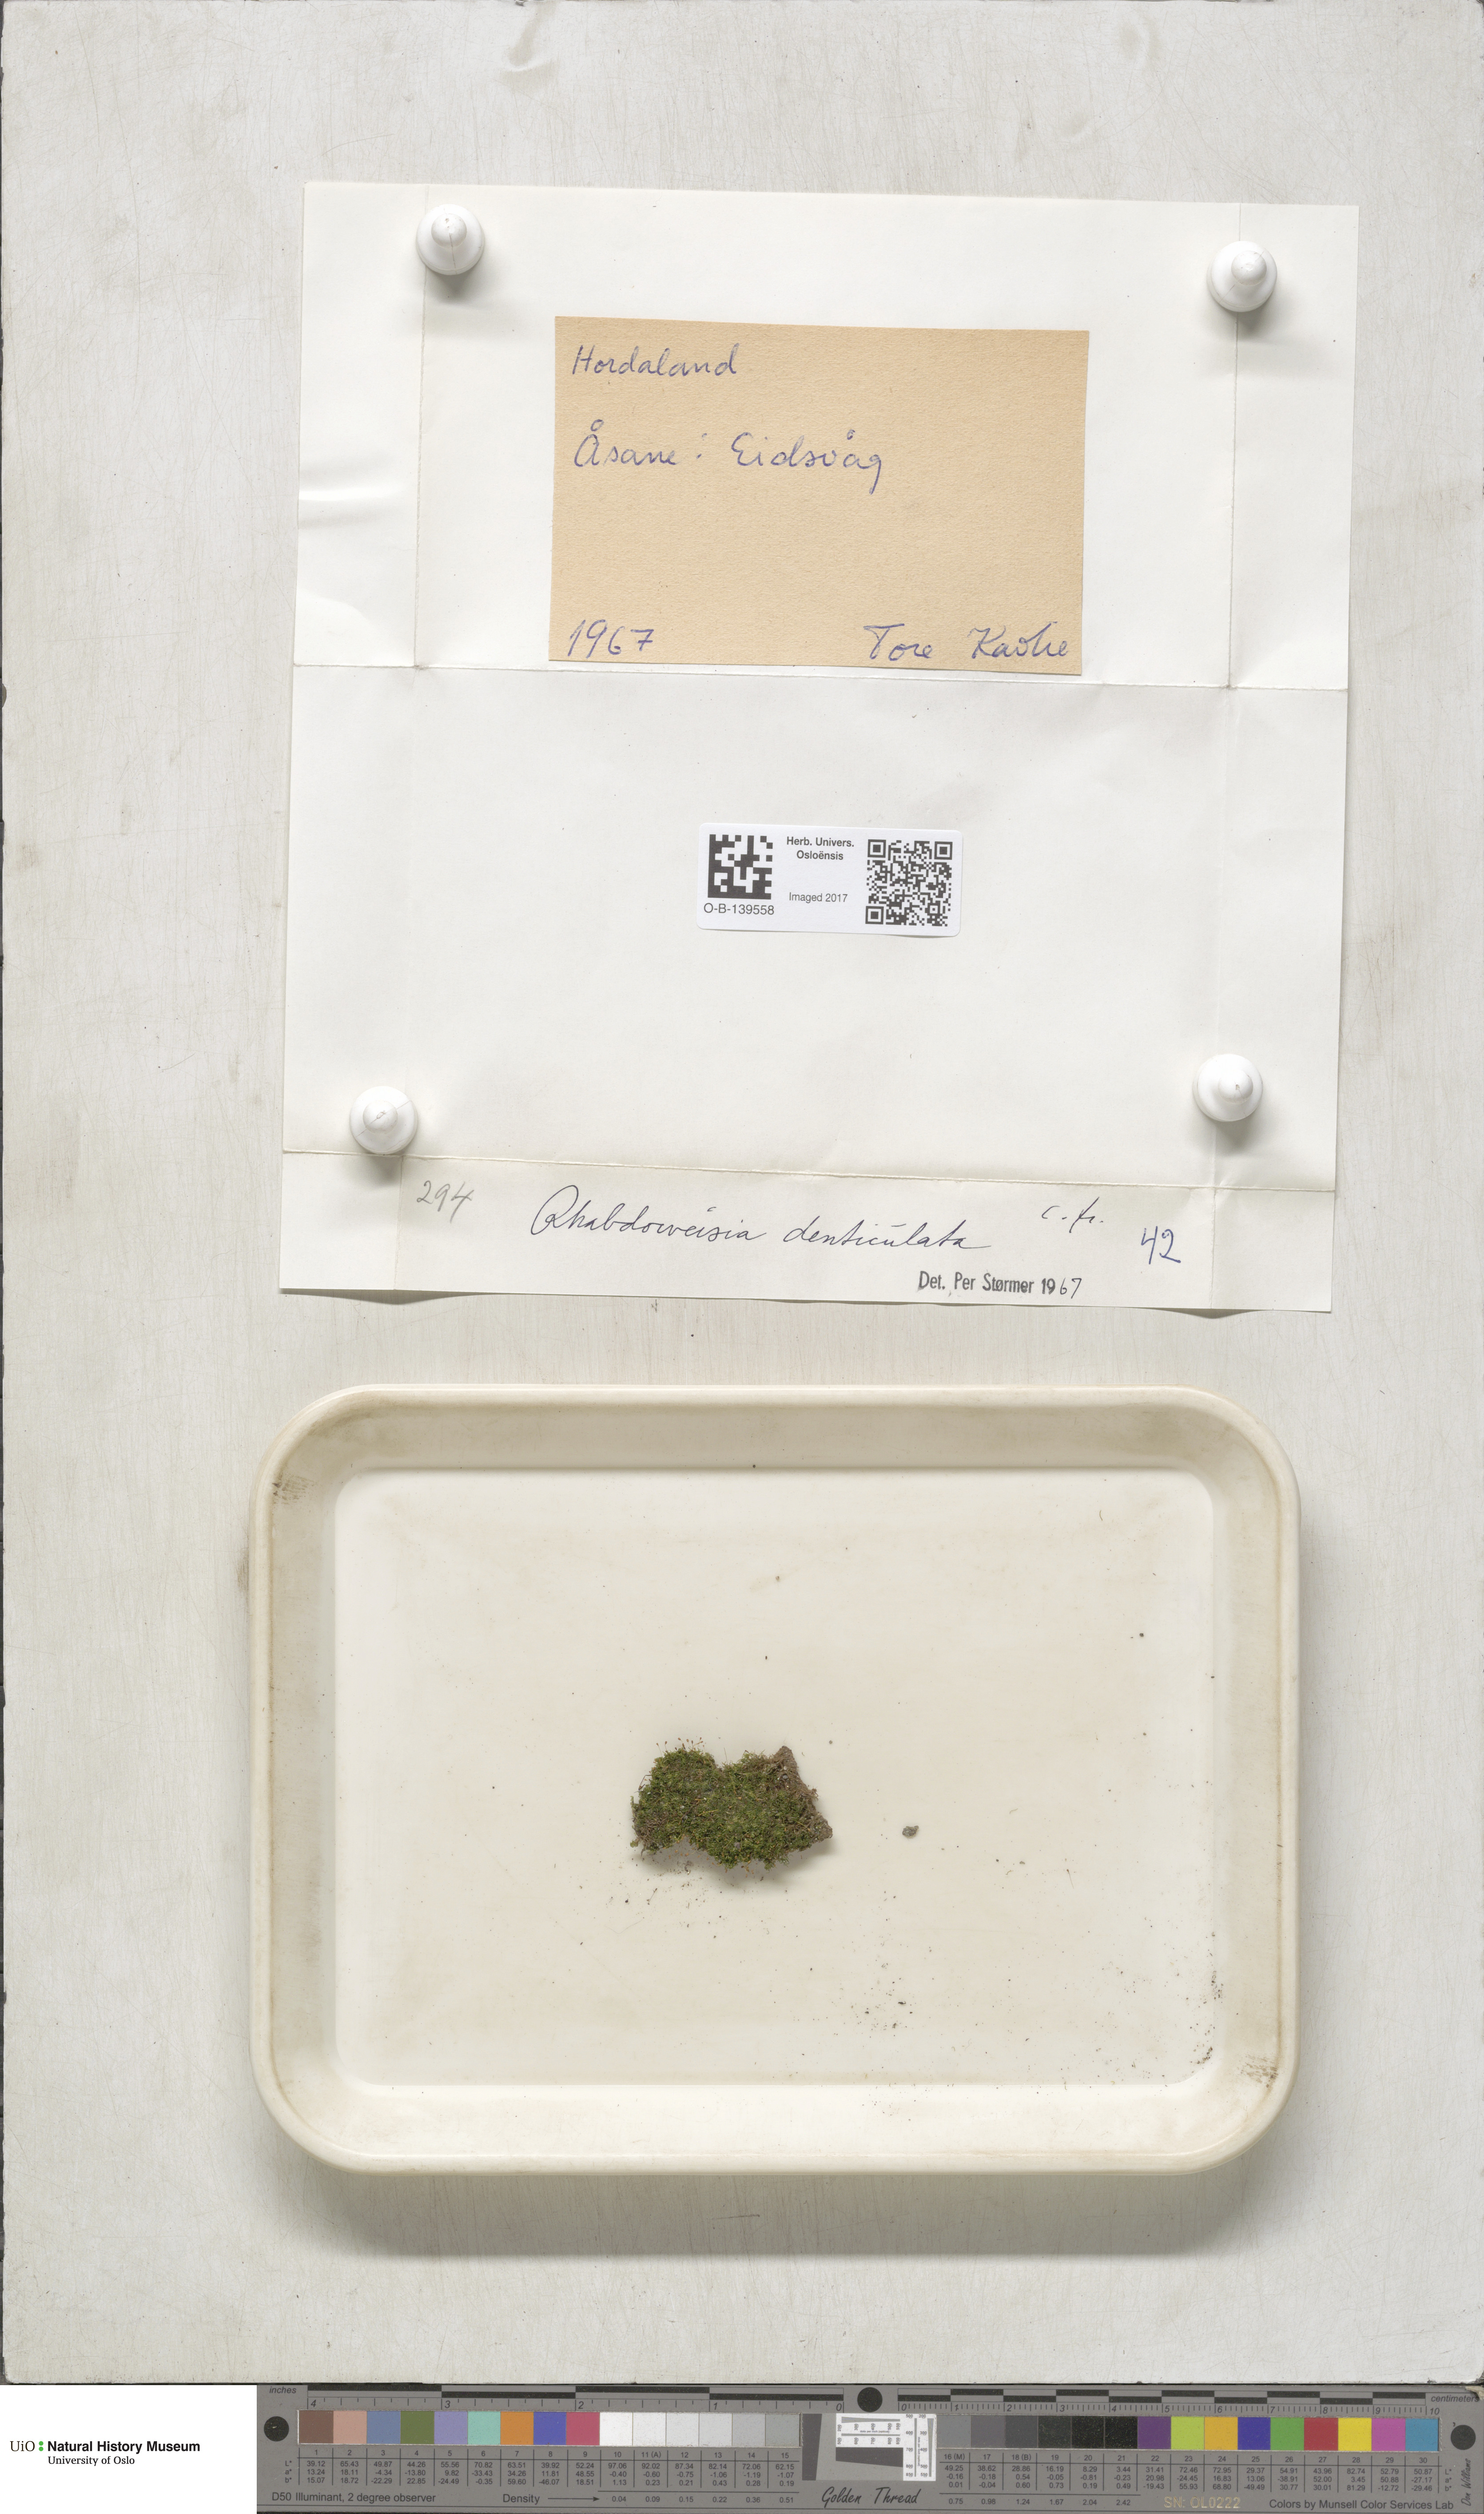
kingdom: Plantae
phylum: Bryophyta
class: Bryopsida
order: Dicranales
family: Rhabdoweisiaceae
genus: Rhabdoweisia
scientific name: Rhabdoweisia crispata
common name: Fine-toothed streak moss
